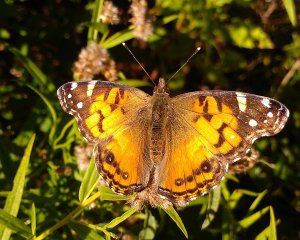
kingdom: Animalia
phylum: Arthropoda
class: Insecta
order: Lepidoptera
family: Nymphalidae
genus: Vanessa
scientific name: Vanessa virginiensis
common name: American Lady
